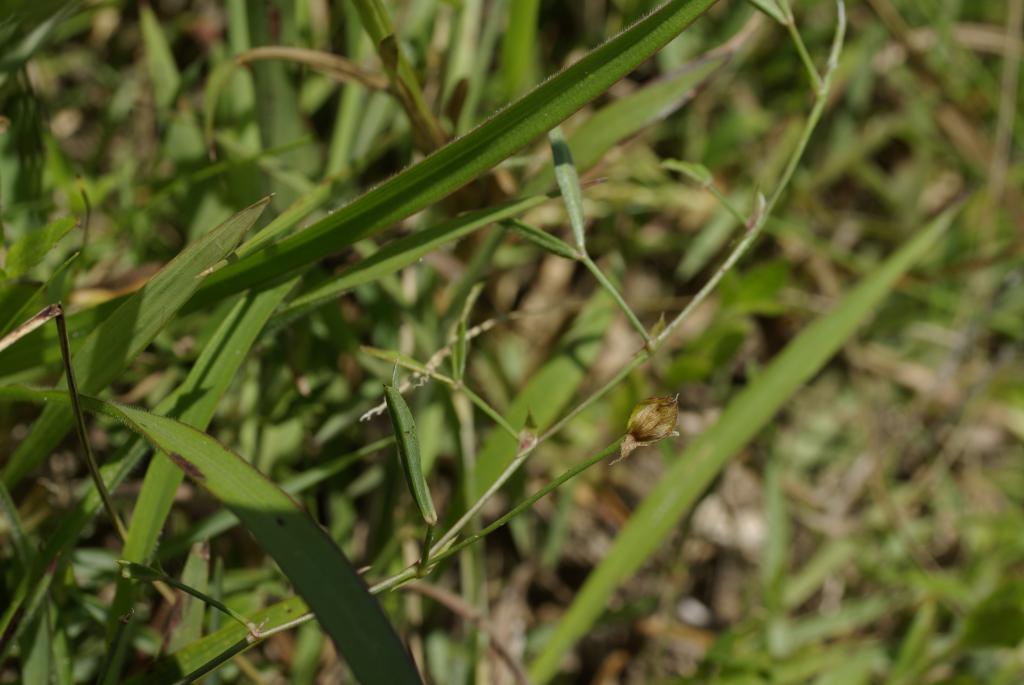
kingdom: Plantae
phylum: Tracheophyta
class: Magnoliopsida
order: Fabales
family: Fabaceae
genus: Zornia
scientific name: Zornia gibbosa
